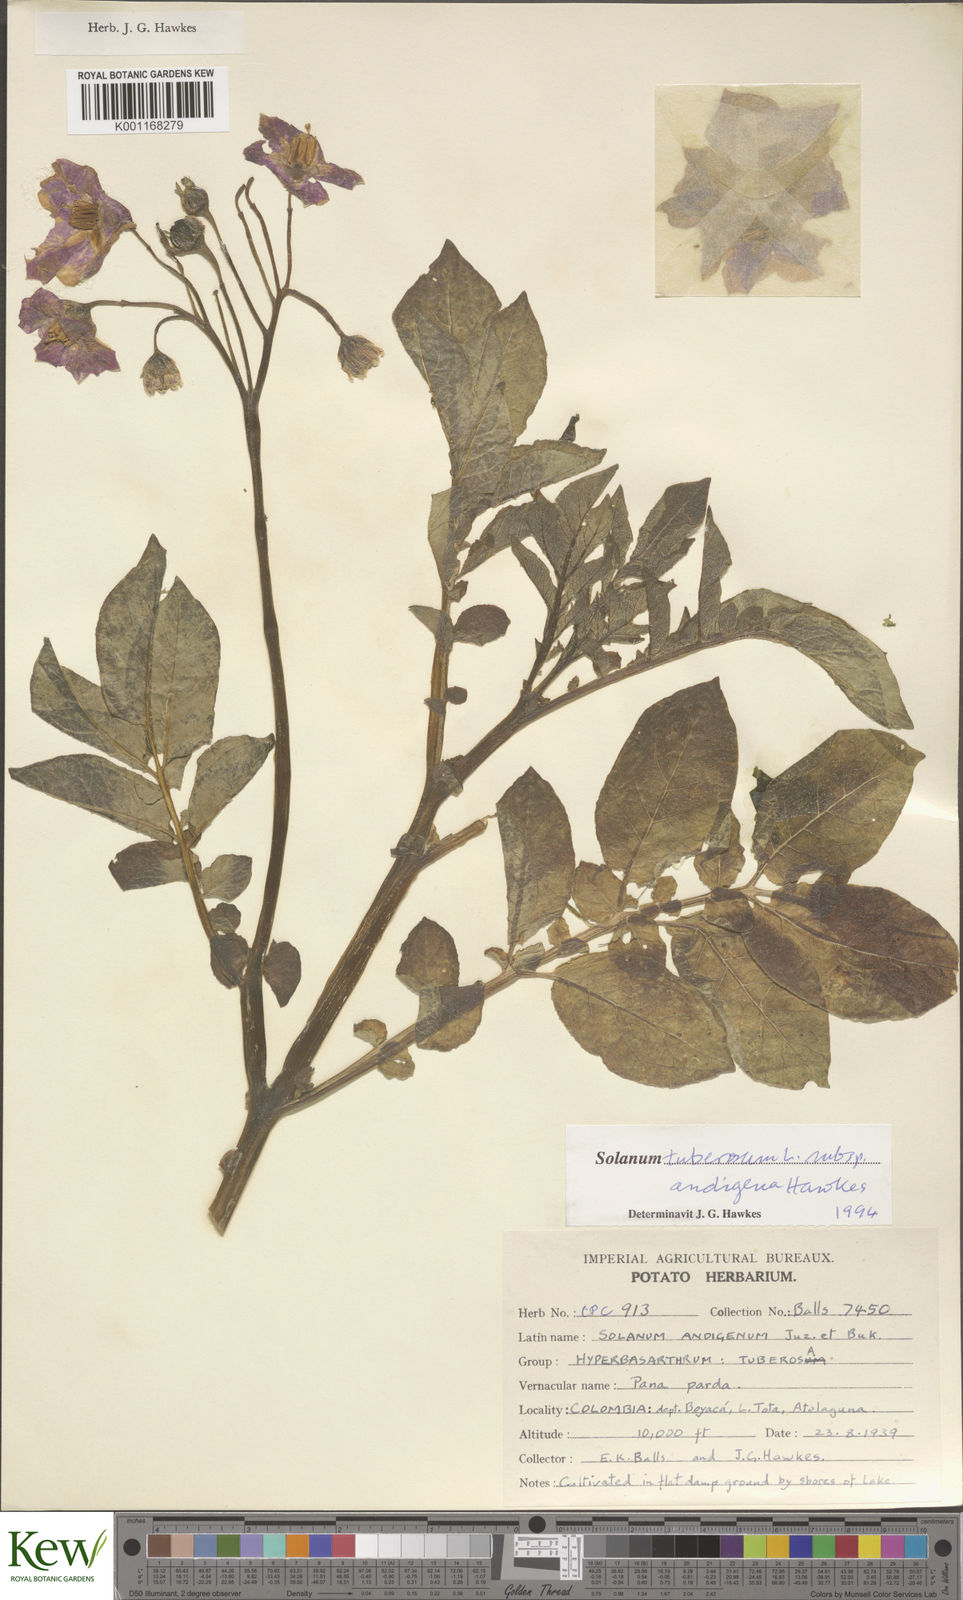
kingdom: Plantae
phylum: Tracheophyta
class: Magnoliopsida
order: Solanales
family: Solanaceae
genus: Solanum
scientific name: Solanum tuberosum
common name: Potato
